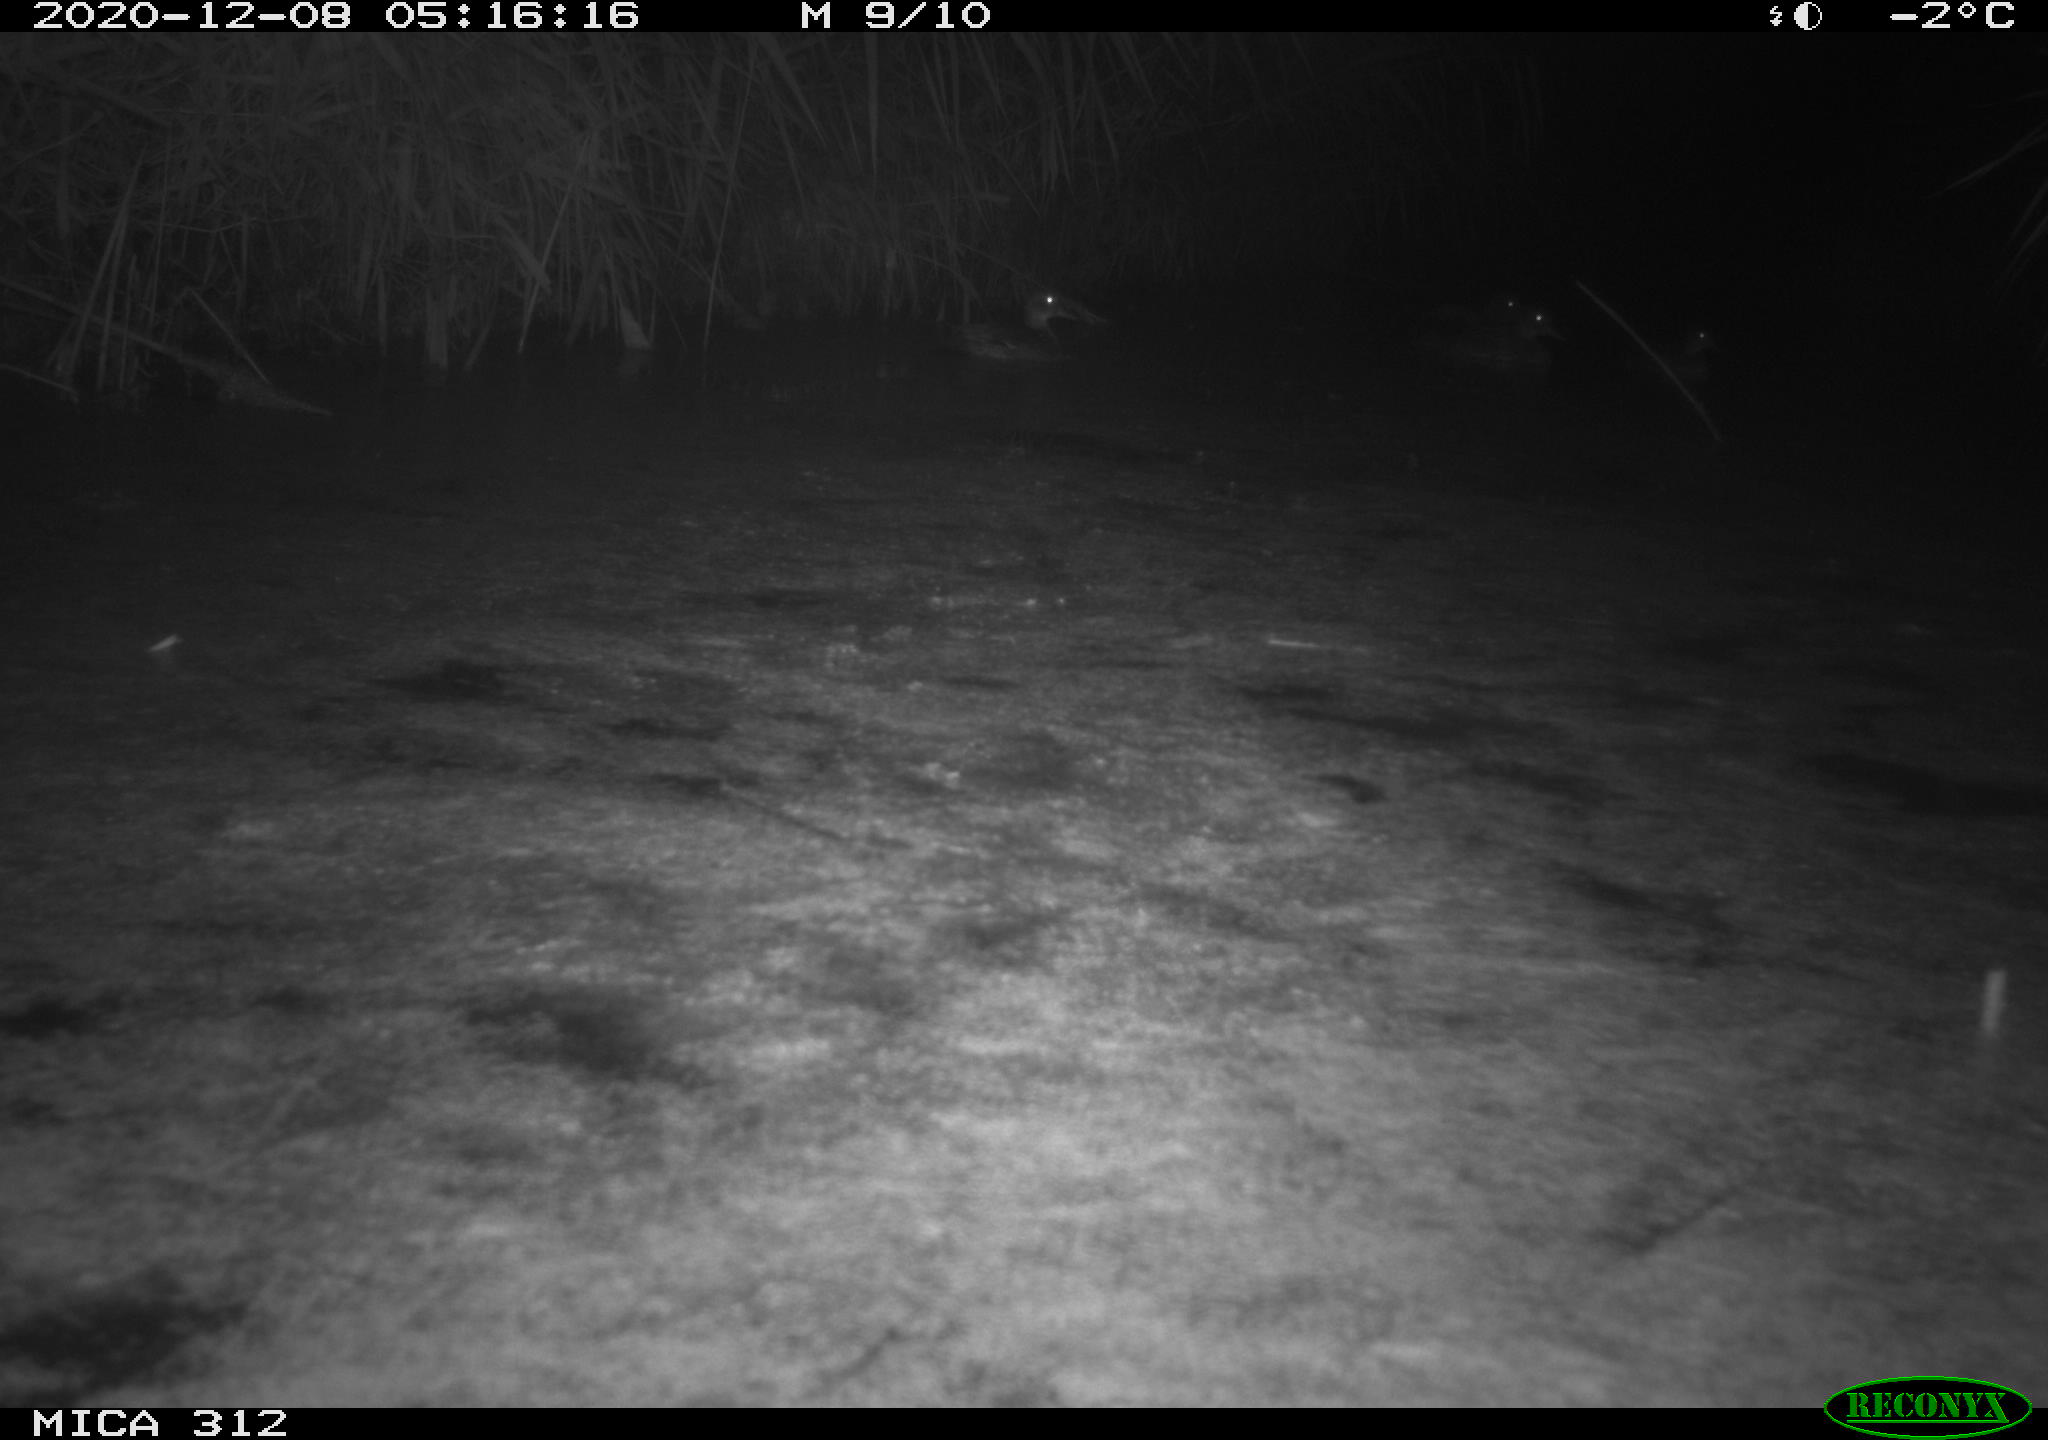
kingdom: Animalia
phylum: Chordata
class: Aves
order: Anseriformes
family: Anatidae
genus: Anas
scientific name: Anas
